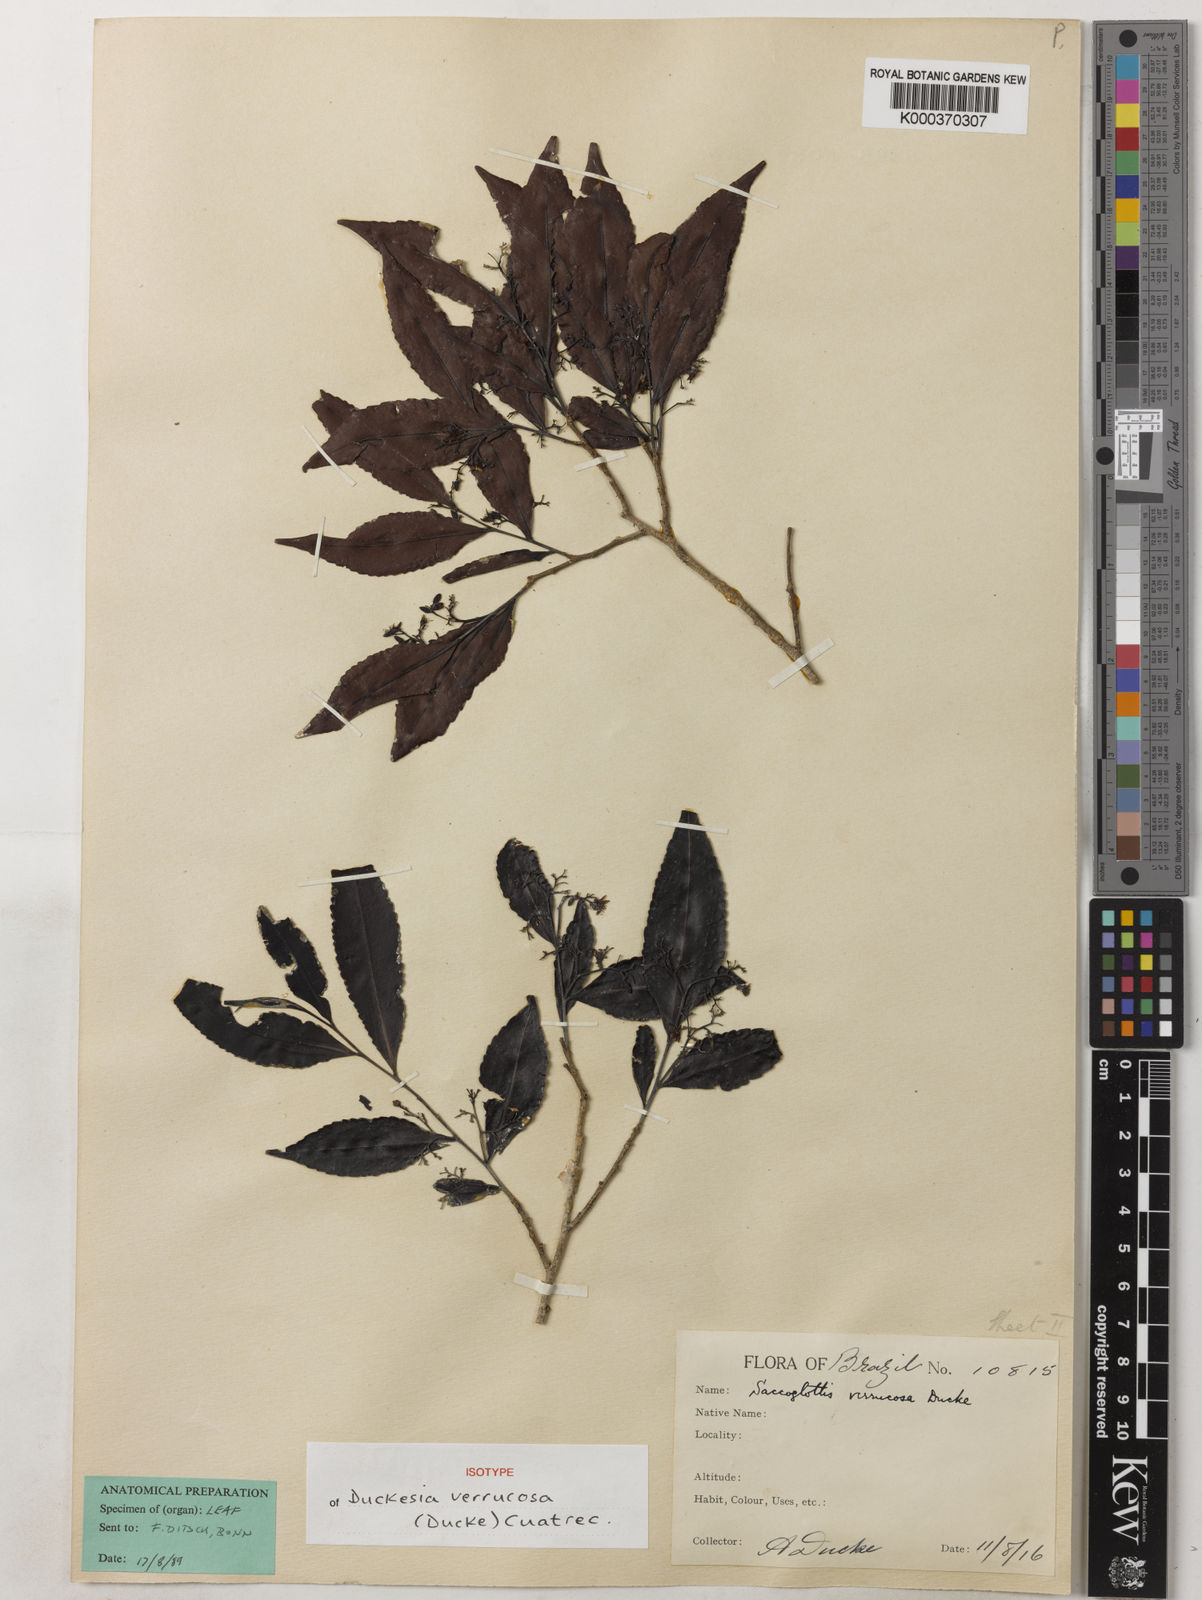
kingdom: Plantae
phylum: Tracheophyta
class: Magnoliopsida
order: Malpighiales
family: Humiriaceae
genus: Duckesia
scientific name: Duckesia verrucosa
